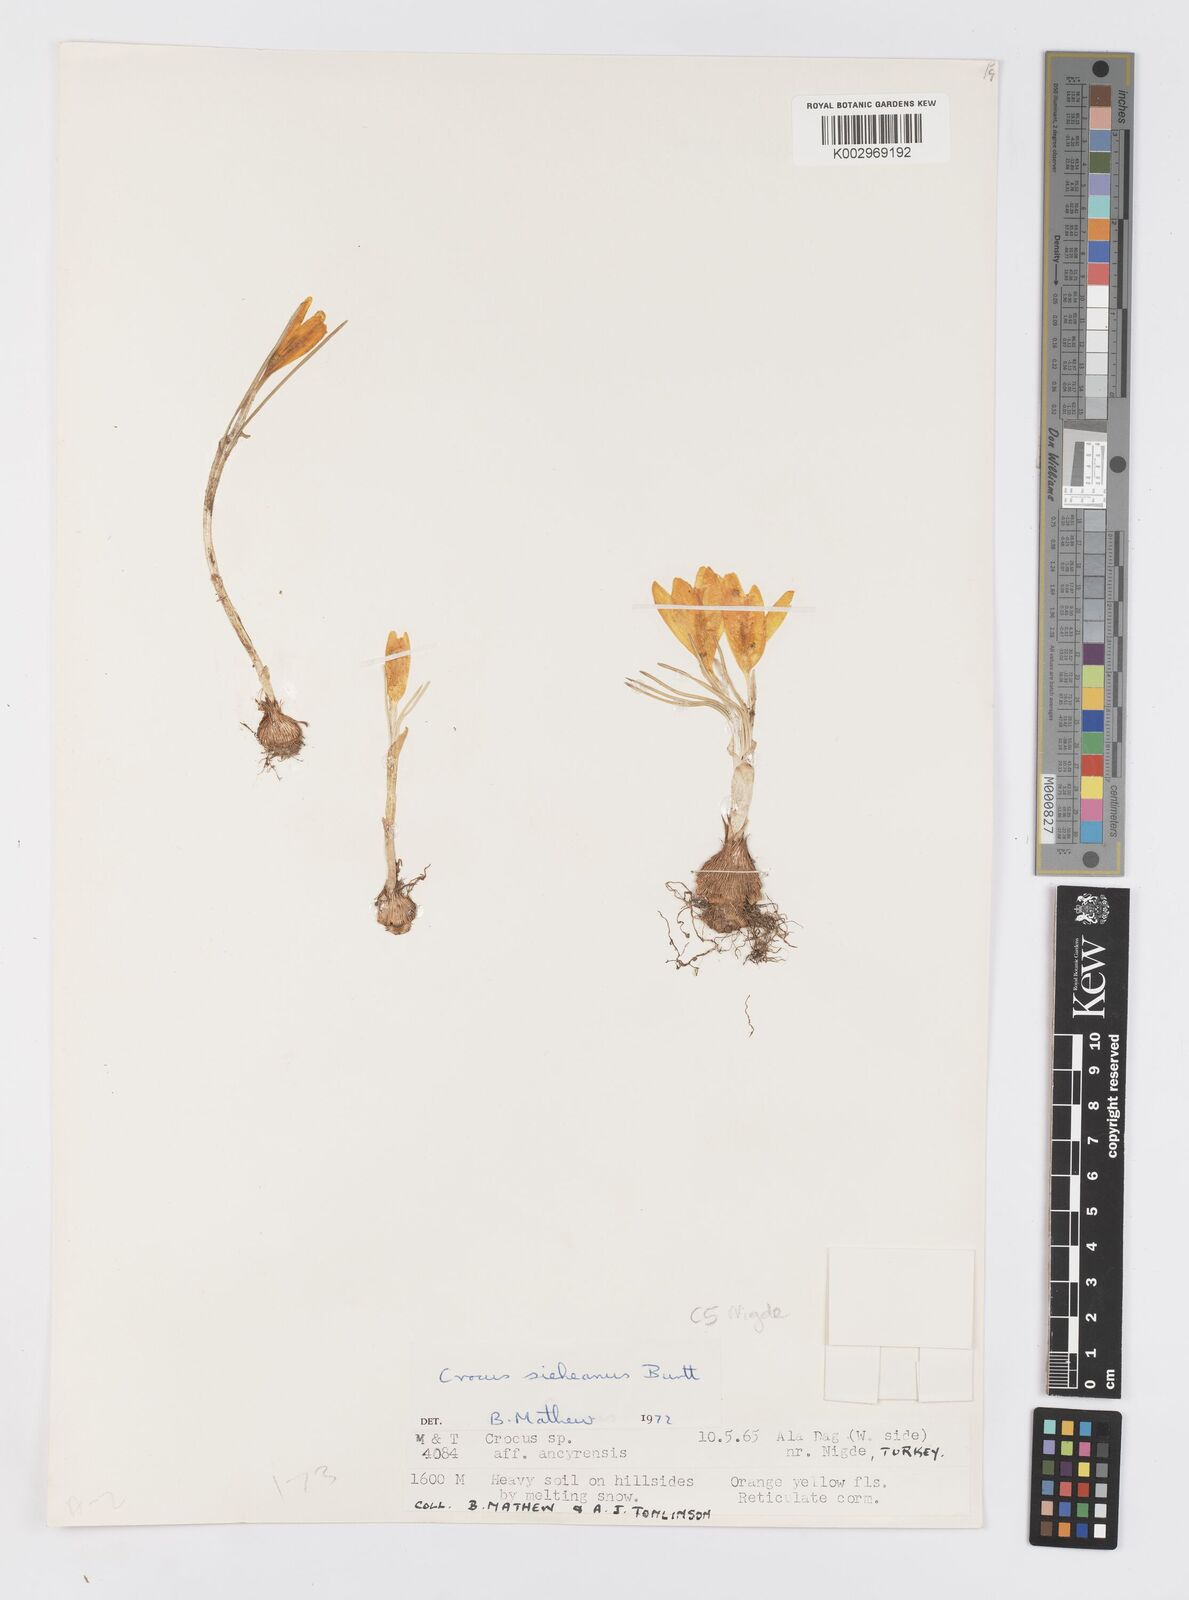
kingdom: Plantae
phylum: Tracheophyta
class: Liliopsida
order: Asparagales
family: Iridaceae
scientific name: Iridaceae
